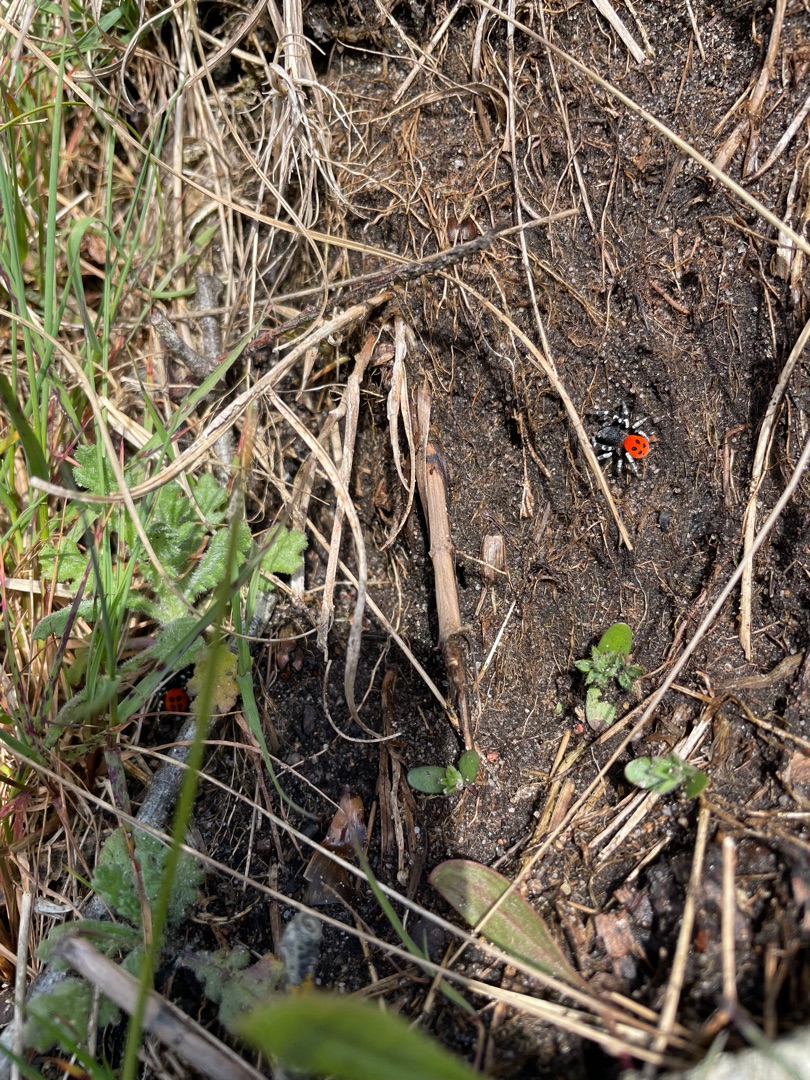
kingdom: Animalia
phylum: Arthropoda
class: Arachnida
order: Araneae
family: Eresidae
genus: Eresus
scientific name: Eresus sandaliatus
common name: Mariehøneedderkop
